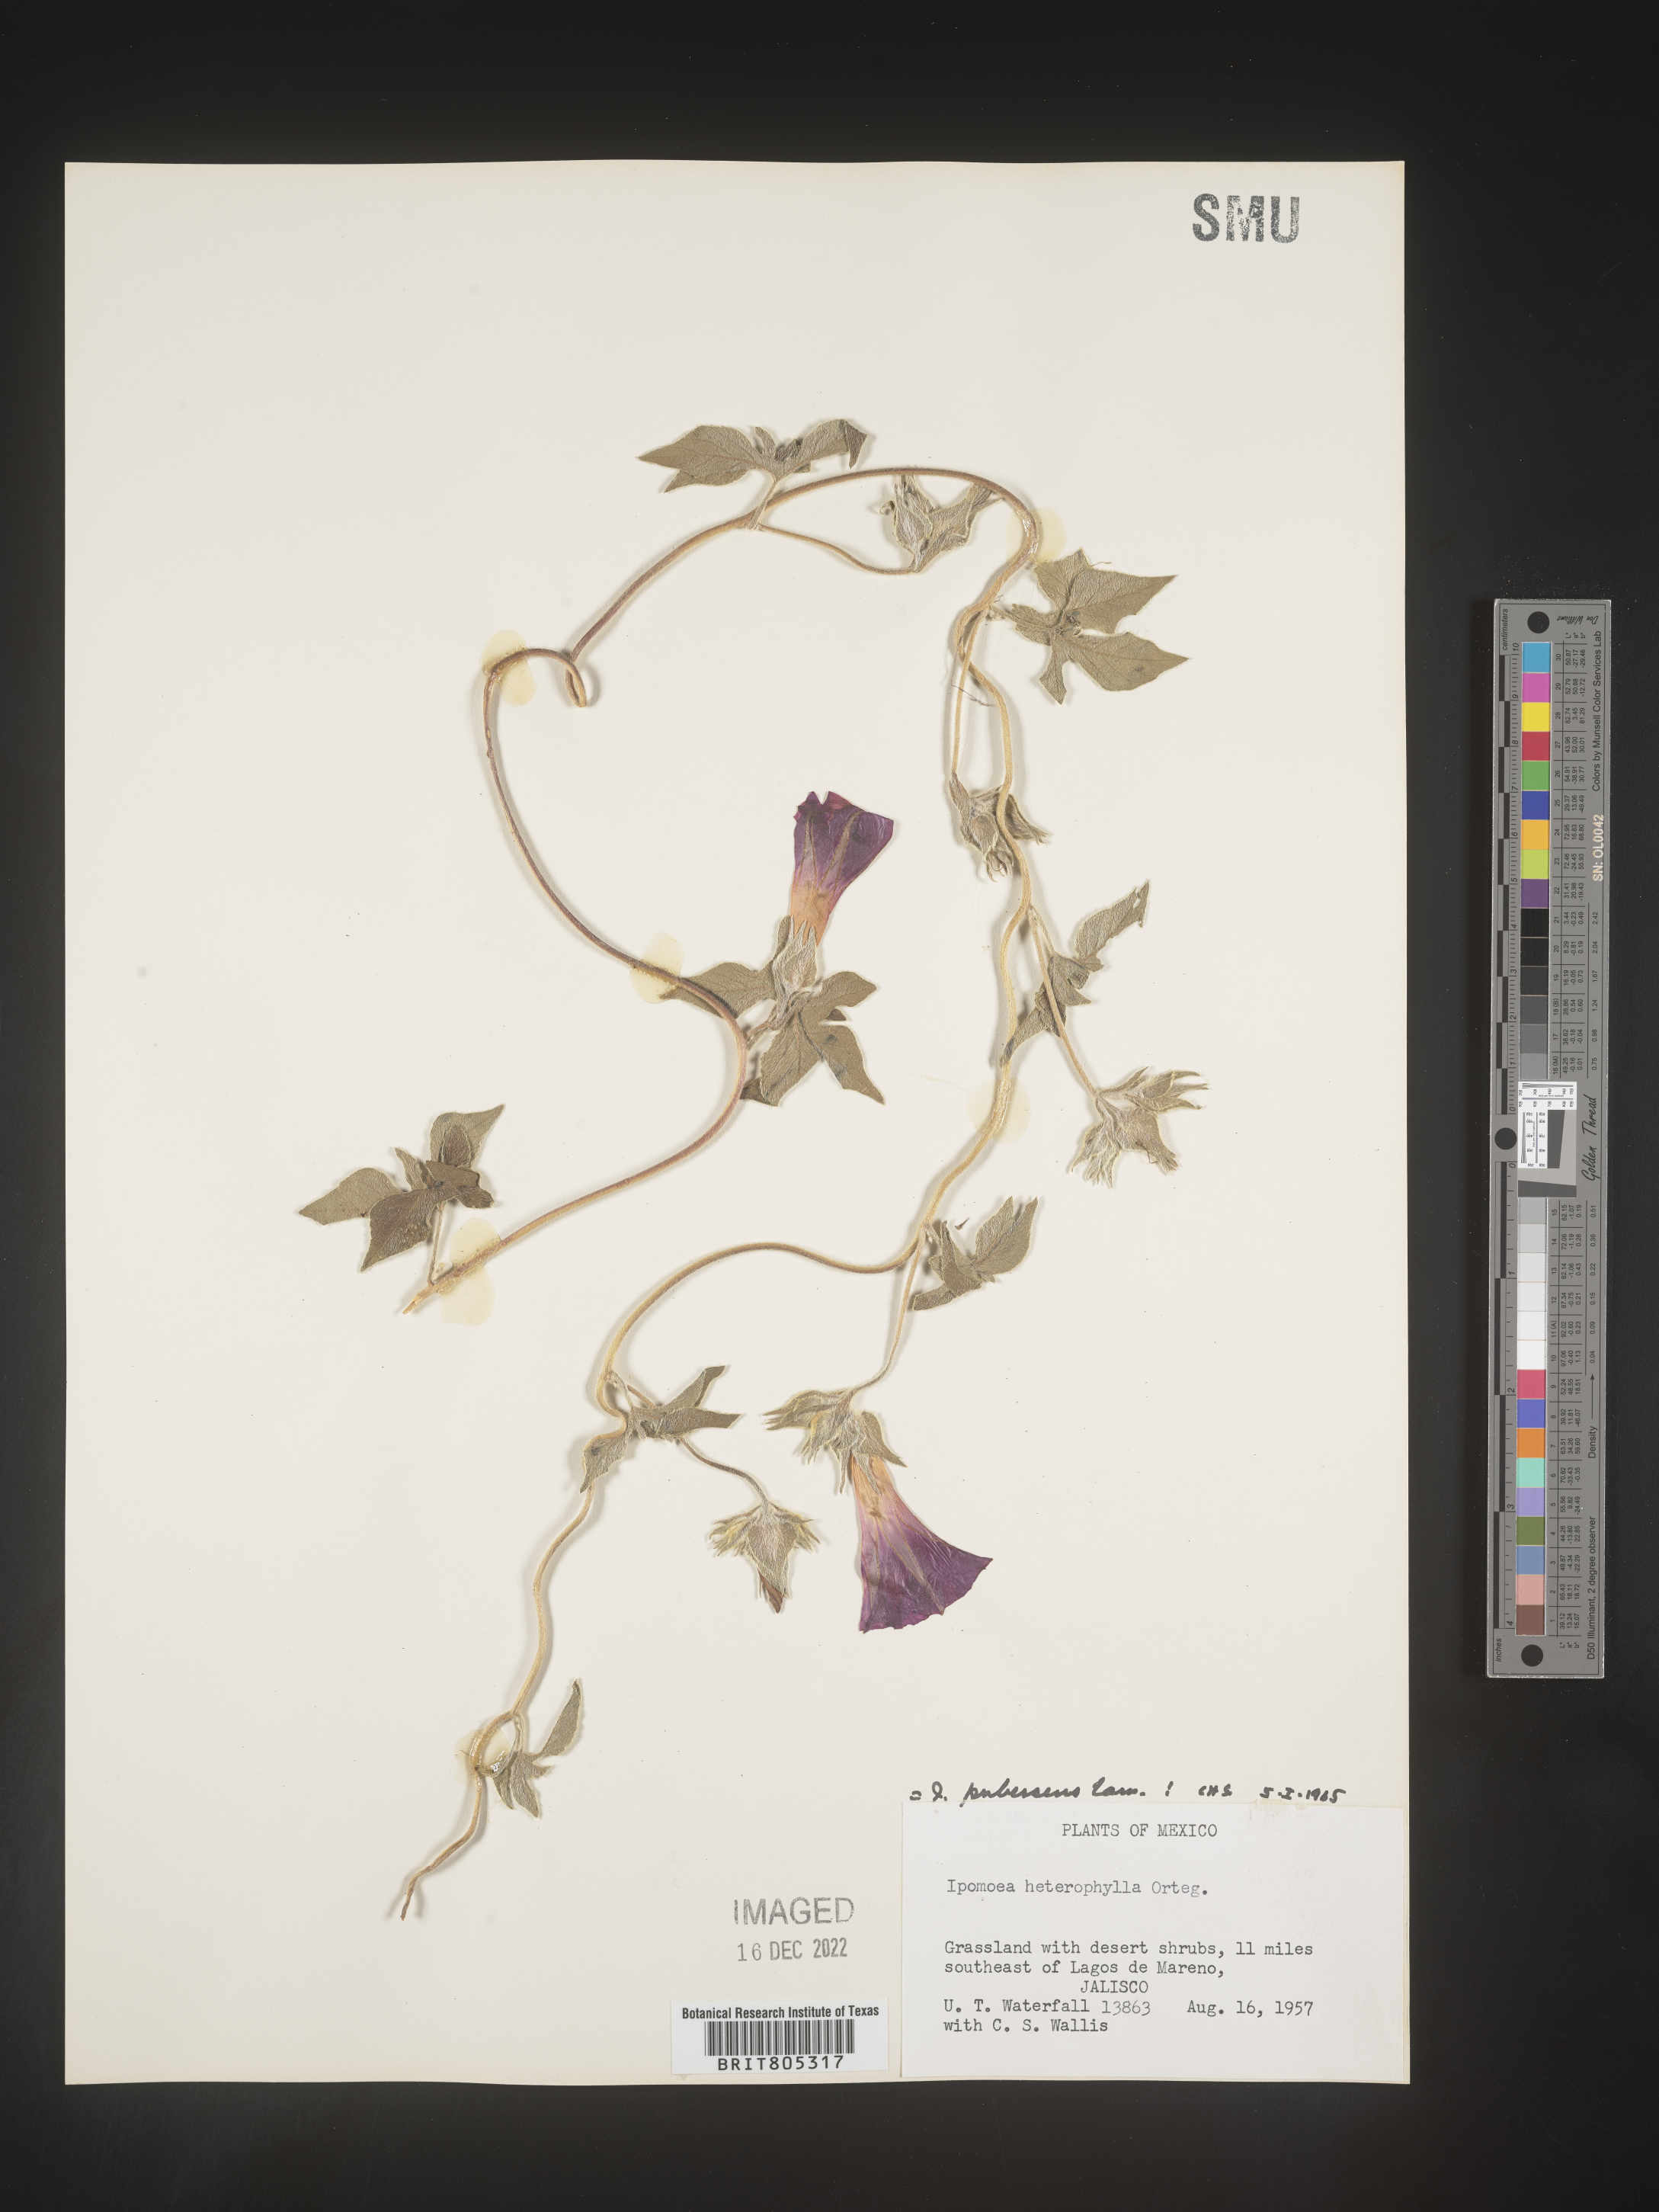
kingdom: Plantae
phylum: Tracheophyta
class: Magnoliopsida
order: Solanales
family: Convolvulaceae
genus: Ipomoea
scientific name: Ipomoea
